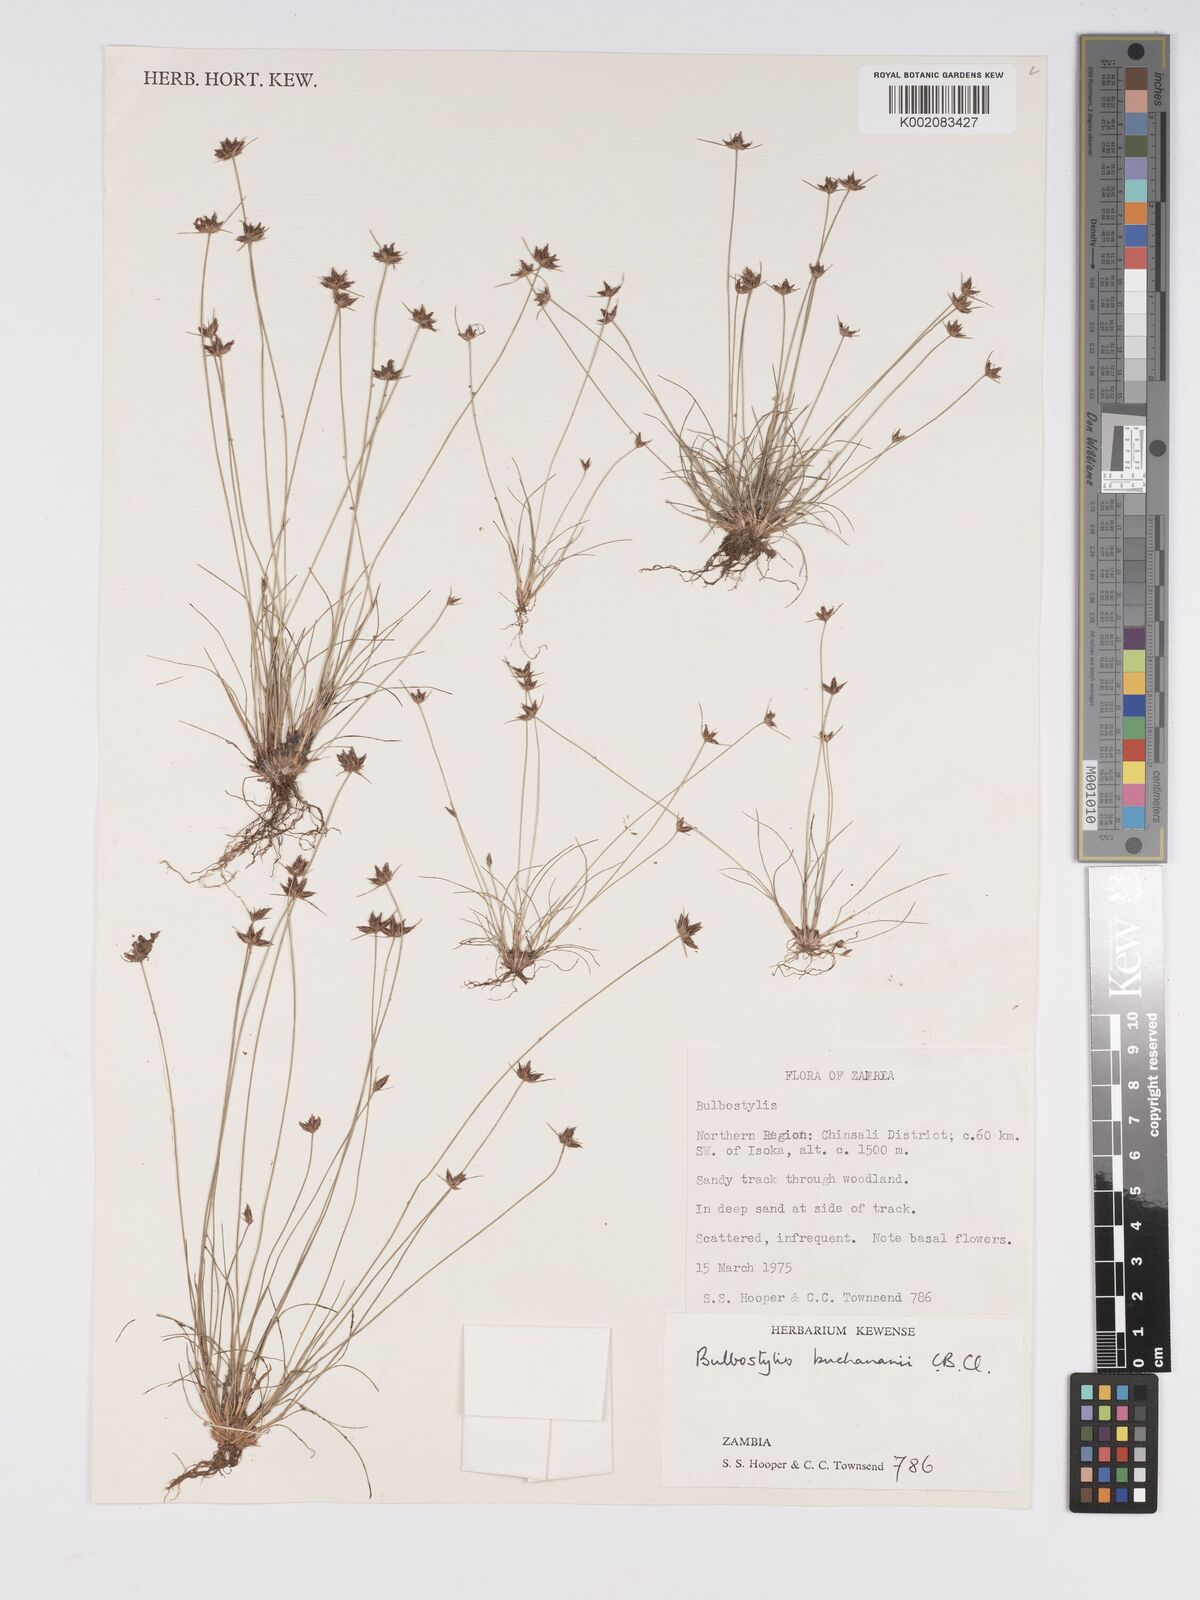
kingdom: Plantae
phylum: Tracheophyta
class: Liliopsida
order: Poales
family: Cyperaceae
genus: Bulbostylis
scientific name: Bulbostylis buchananii
